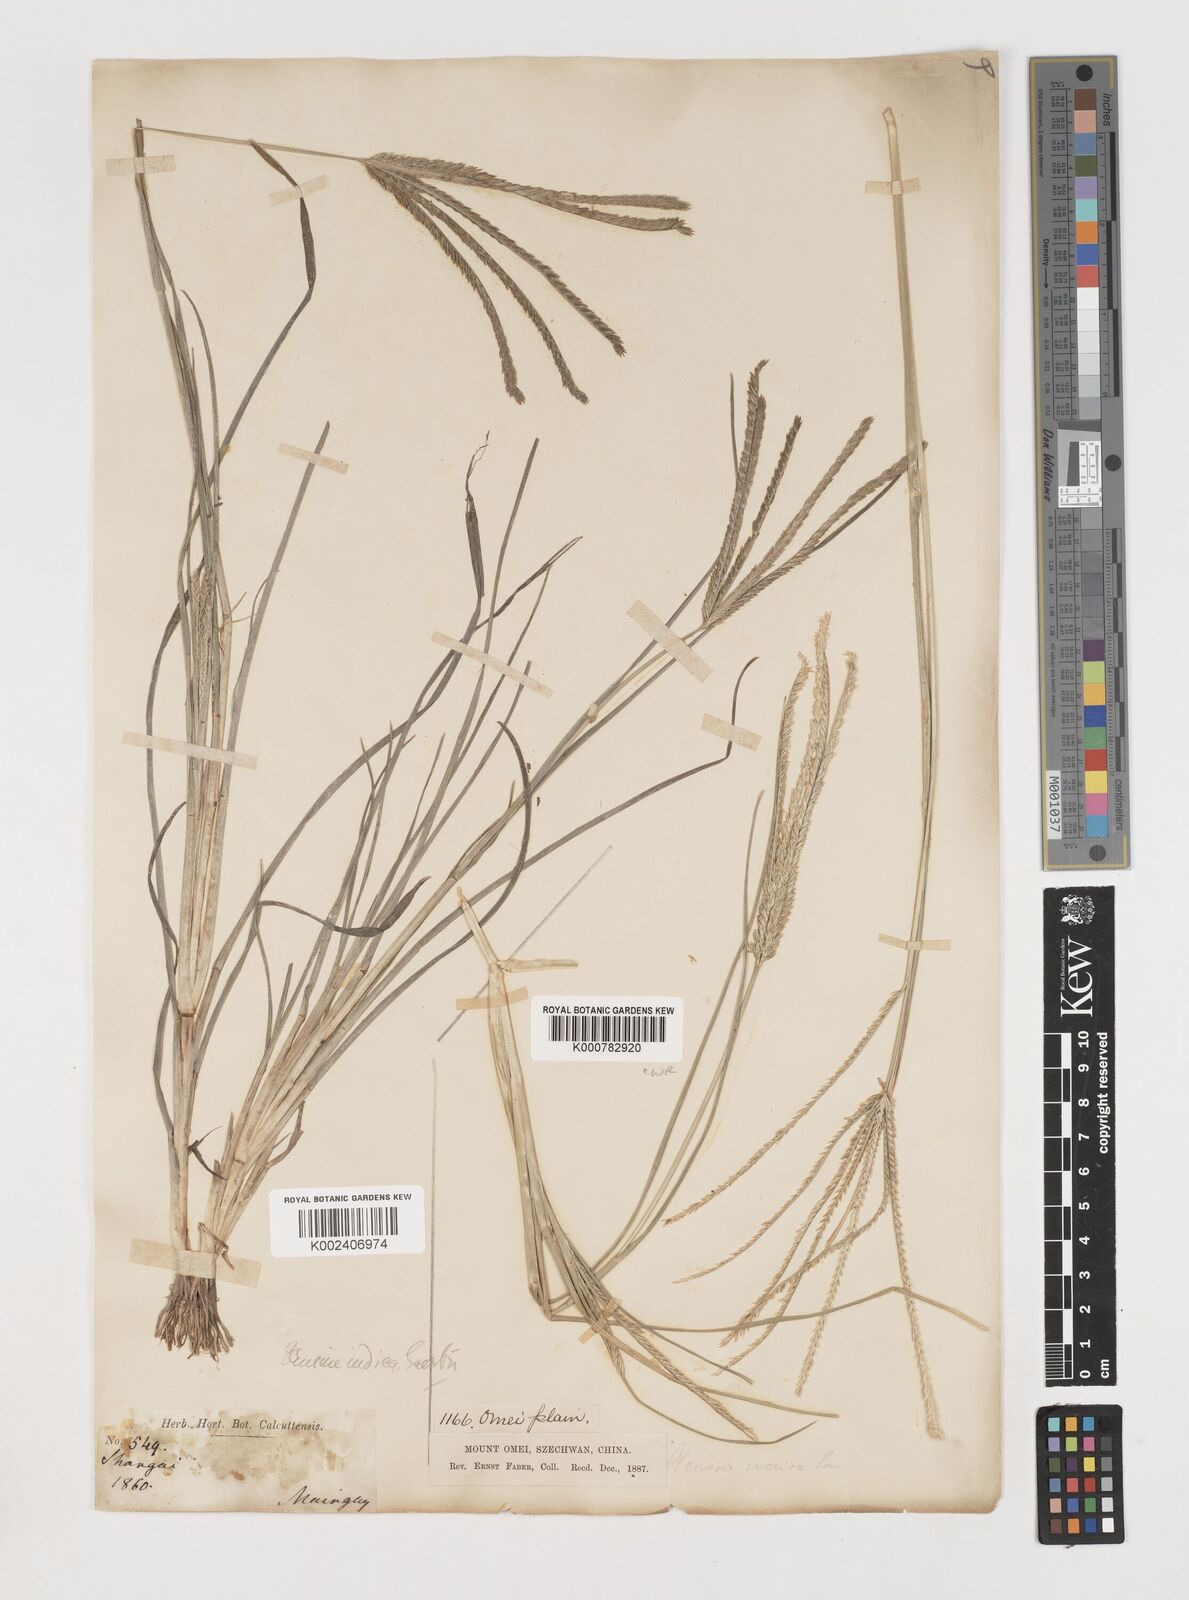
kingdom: Plantae
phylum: Tracheophyta
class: Liliopsida
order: Poales
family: Poaceae
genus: Eleusine
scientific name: Eleusine indica
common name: Yard-grass
